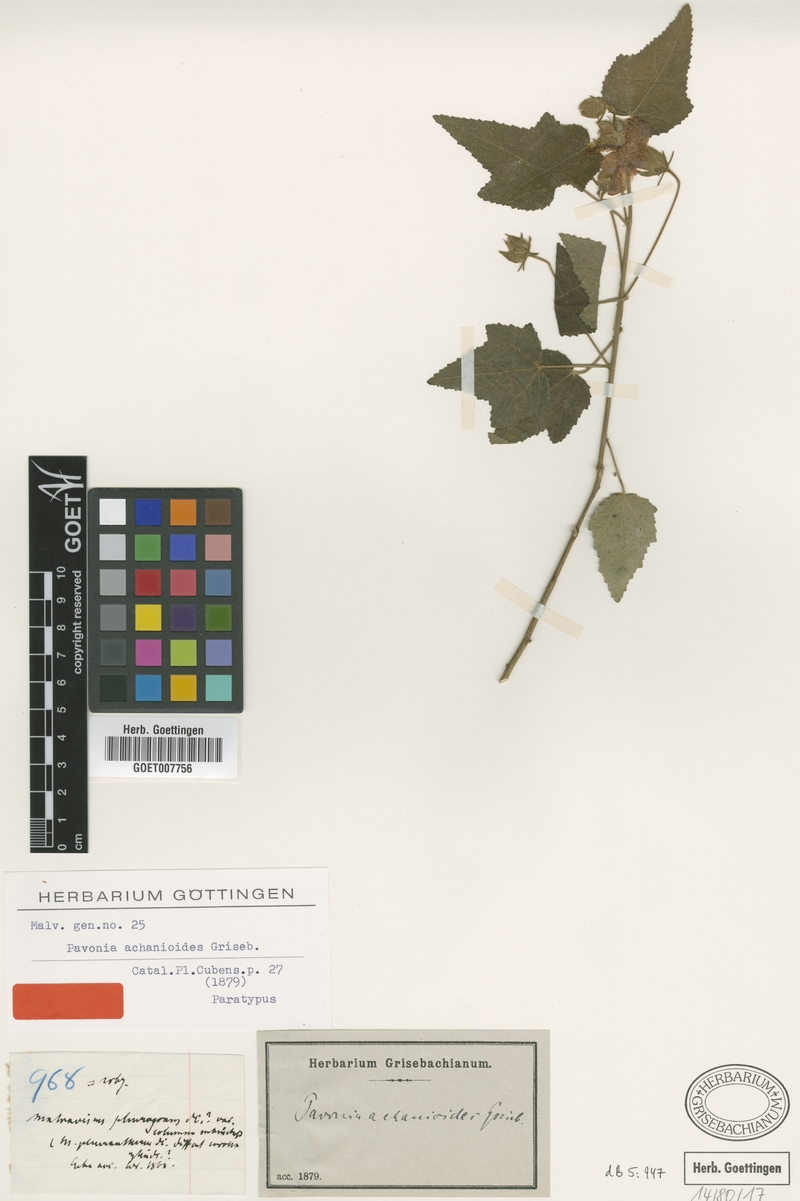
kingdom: Plantae
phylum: Tracheophyta
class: Magnoliopsida
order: Malvales
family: Malvaceae
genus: Pavonia
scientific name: Pavonia achanioides
